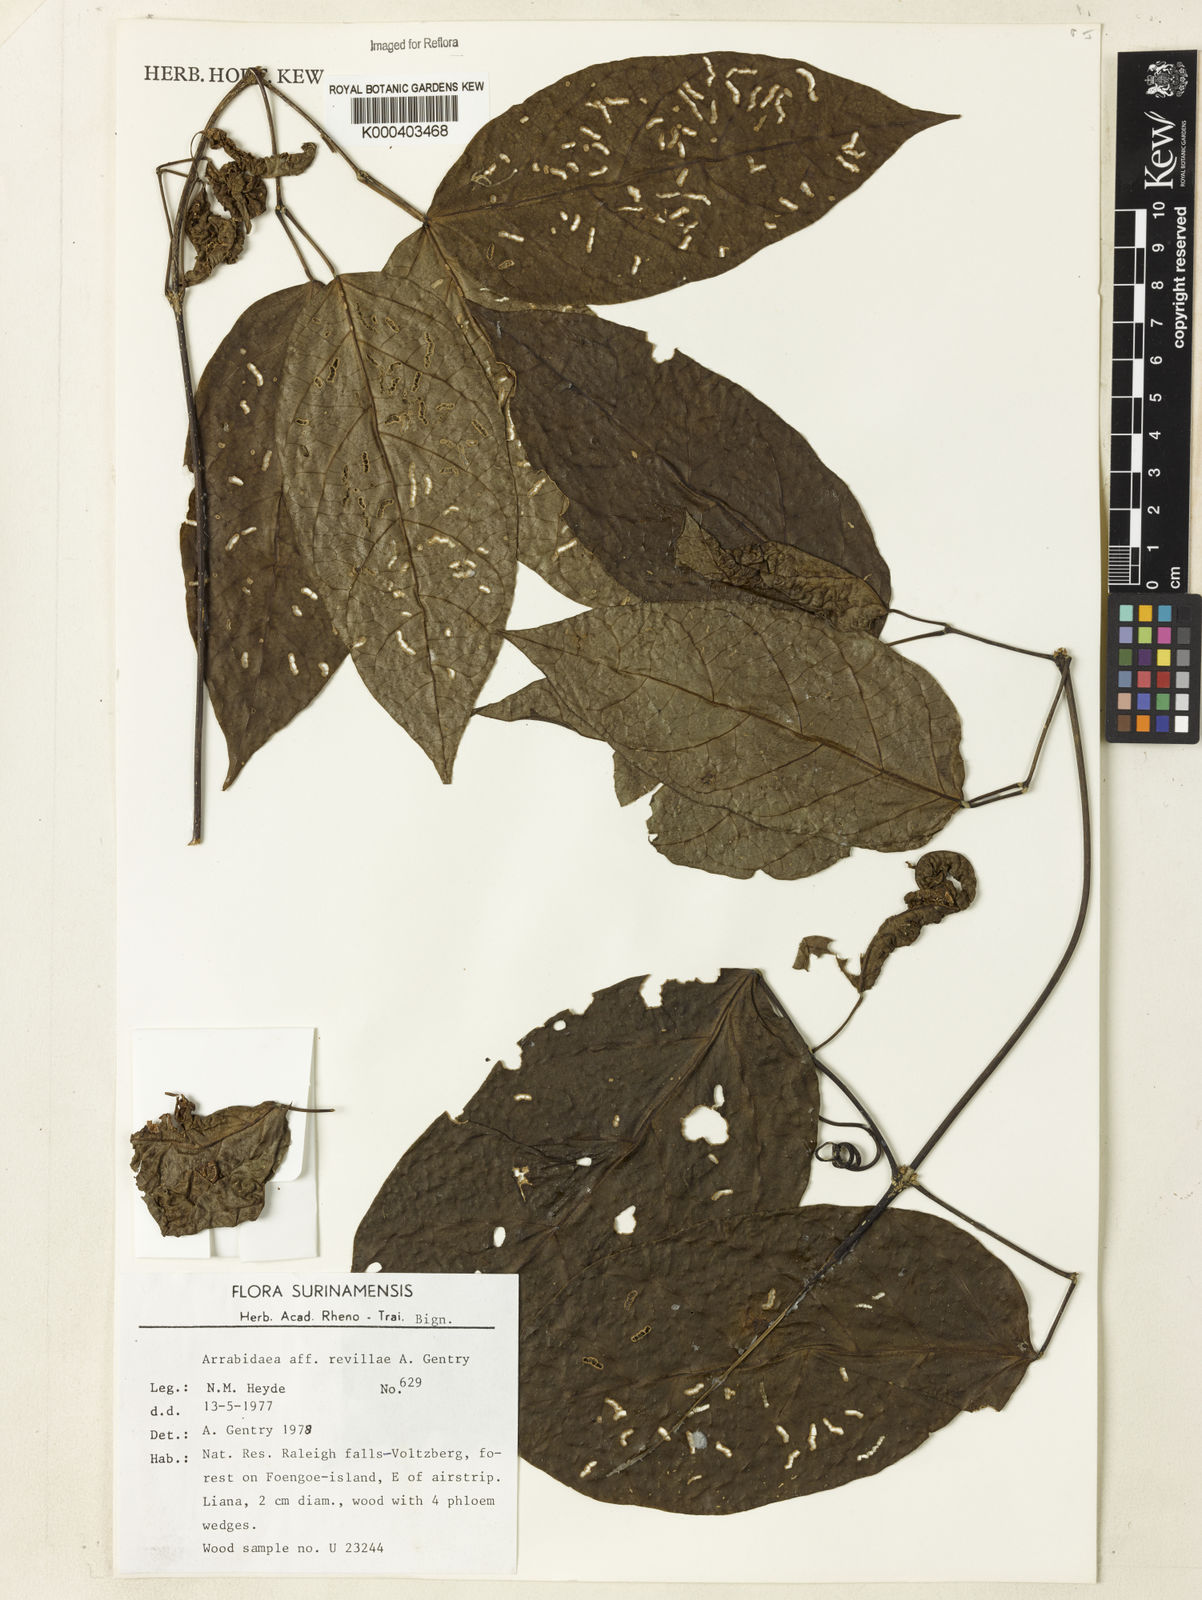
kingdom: Plantae
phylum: Tracheophyta
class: Magnoliopsida
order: Rosales
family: Rhamnaceae
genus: Arrabidaea
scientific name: Arrabidaea
